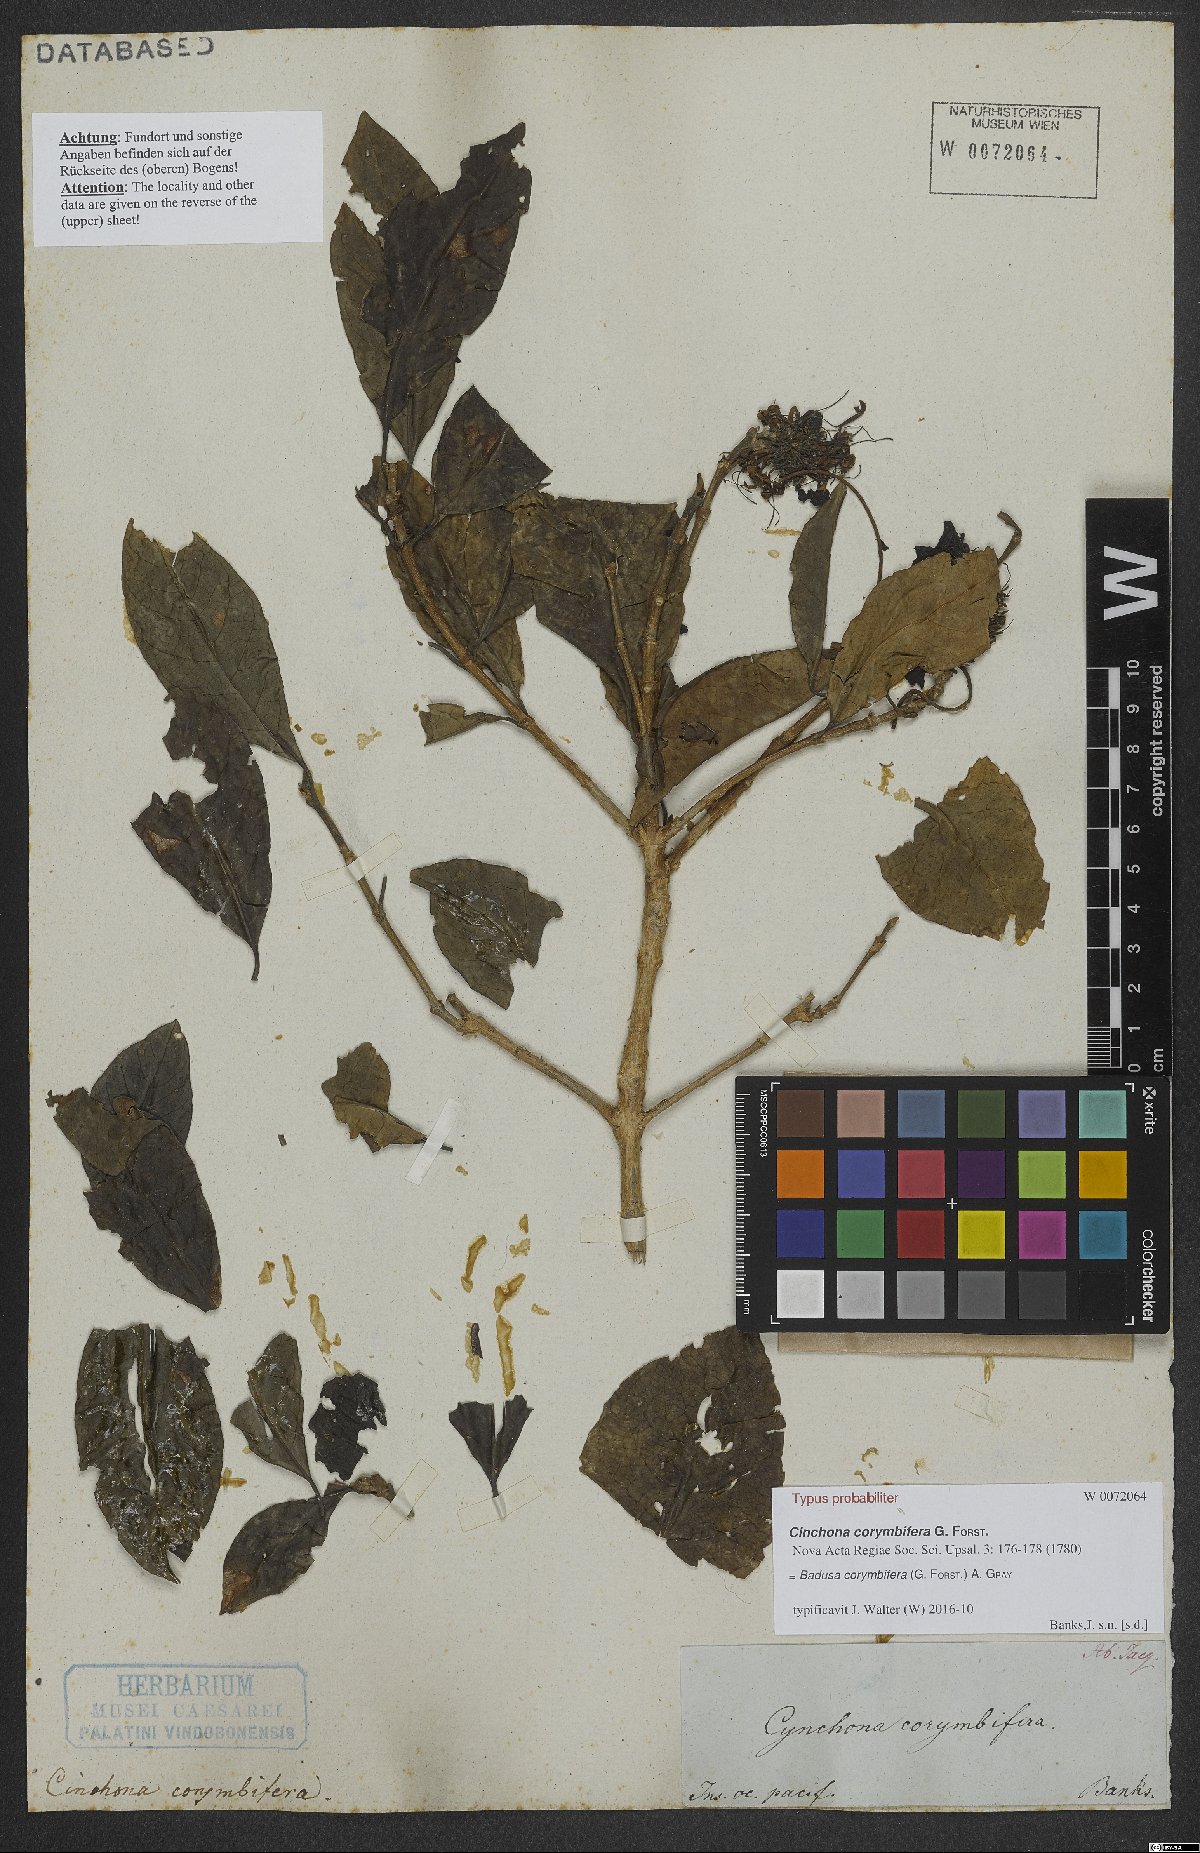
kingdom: Plantae
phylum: Tracheophyta
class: Magnoliopsida
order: Gentianales
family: Rubiaceae
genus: Badusa
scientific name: Badusa corymbifera
